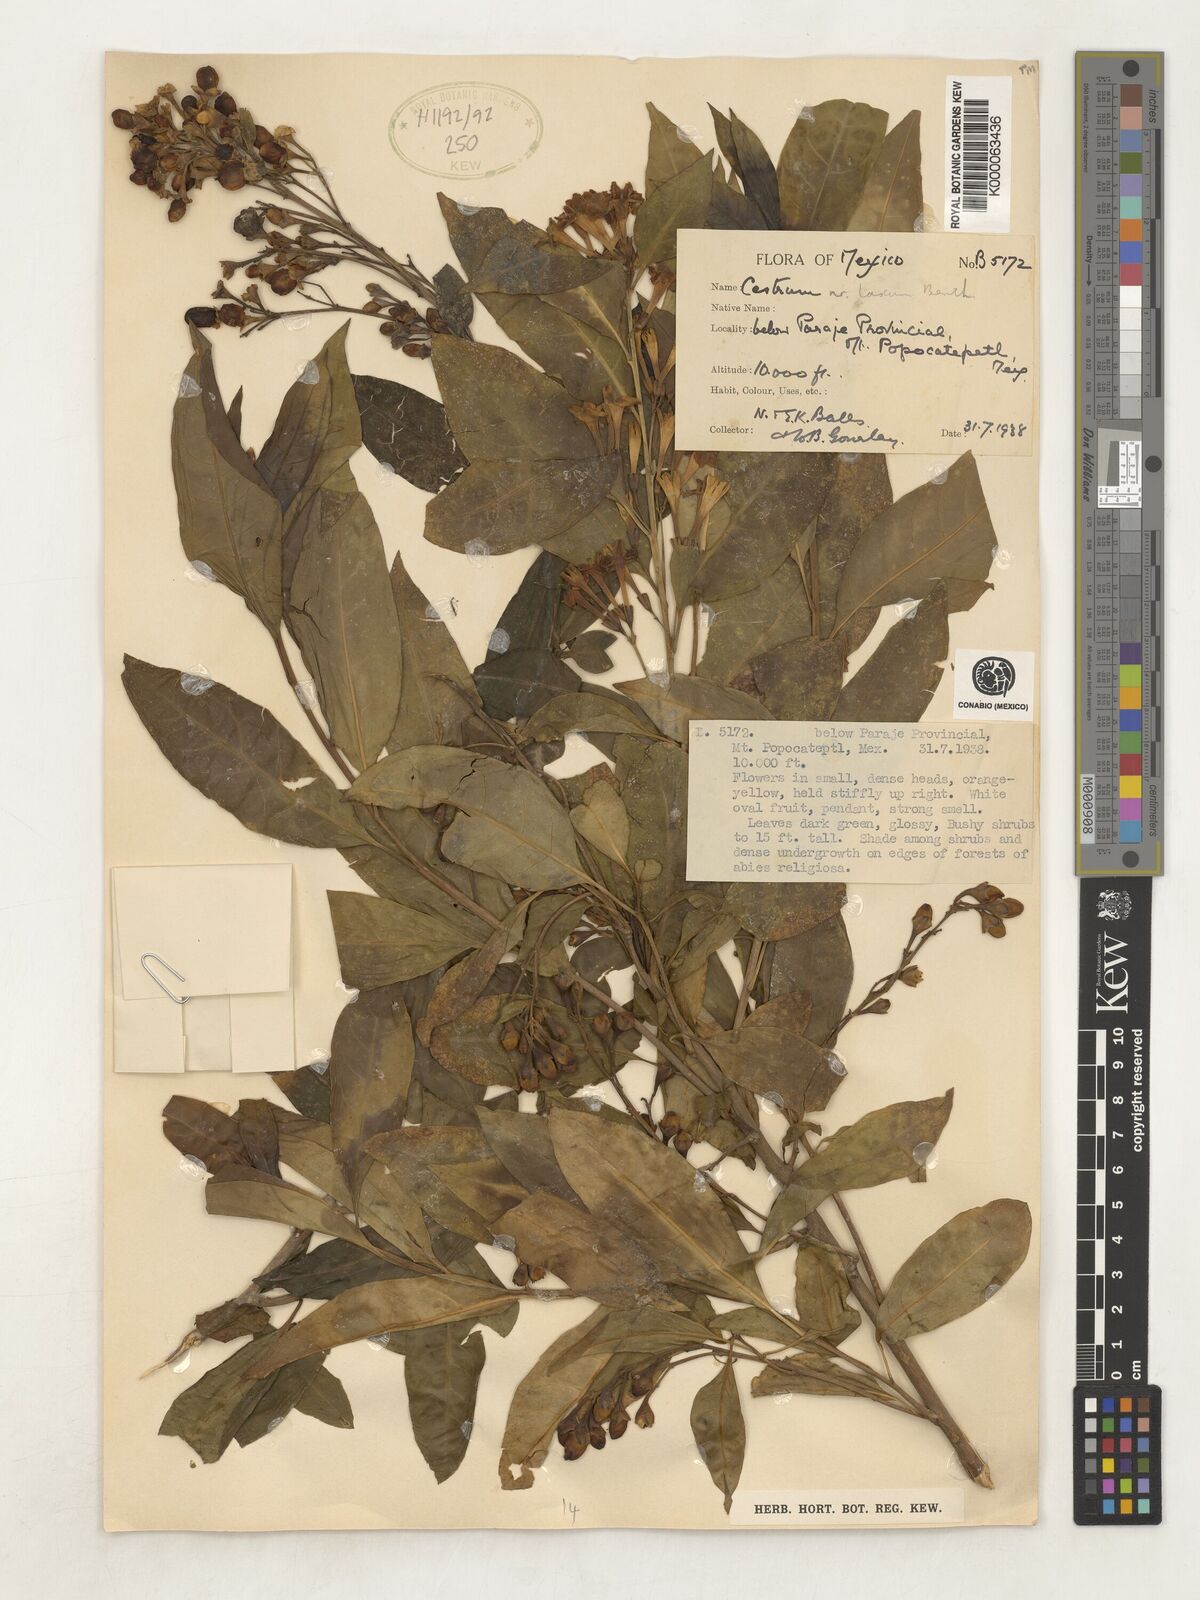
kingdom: Plantae
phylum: Tracheophyta
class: Magnoliopsida
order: Solanales
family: Solanaceae
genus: Cestrum
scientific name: Cestrum laxum
